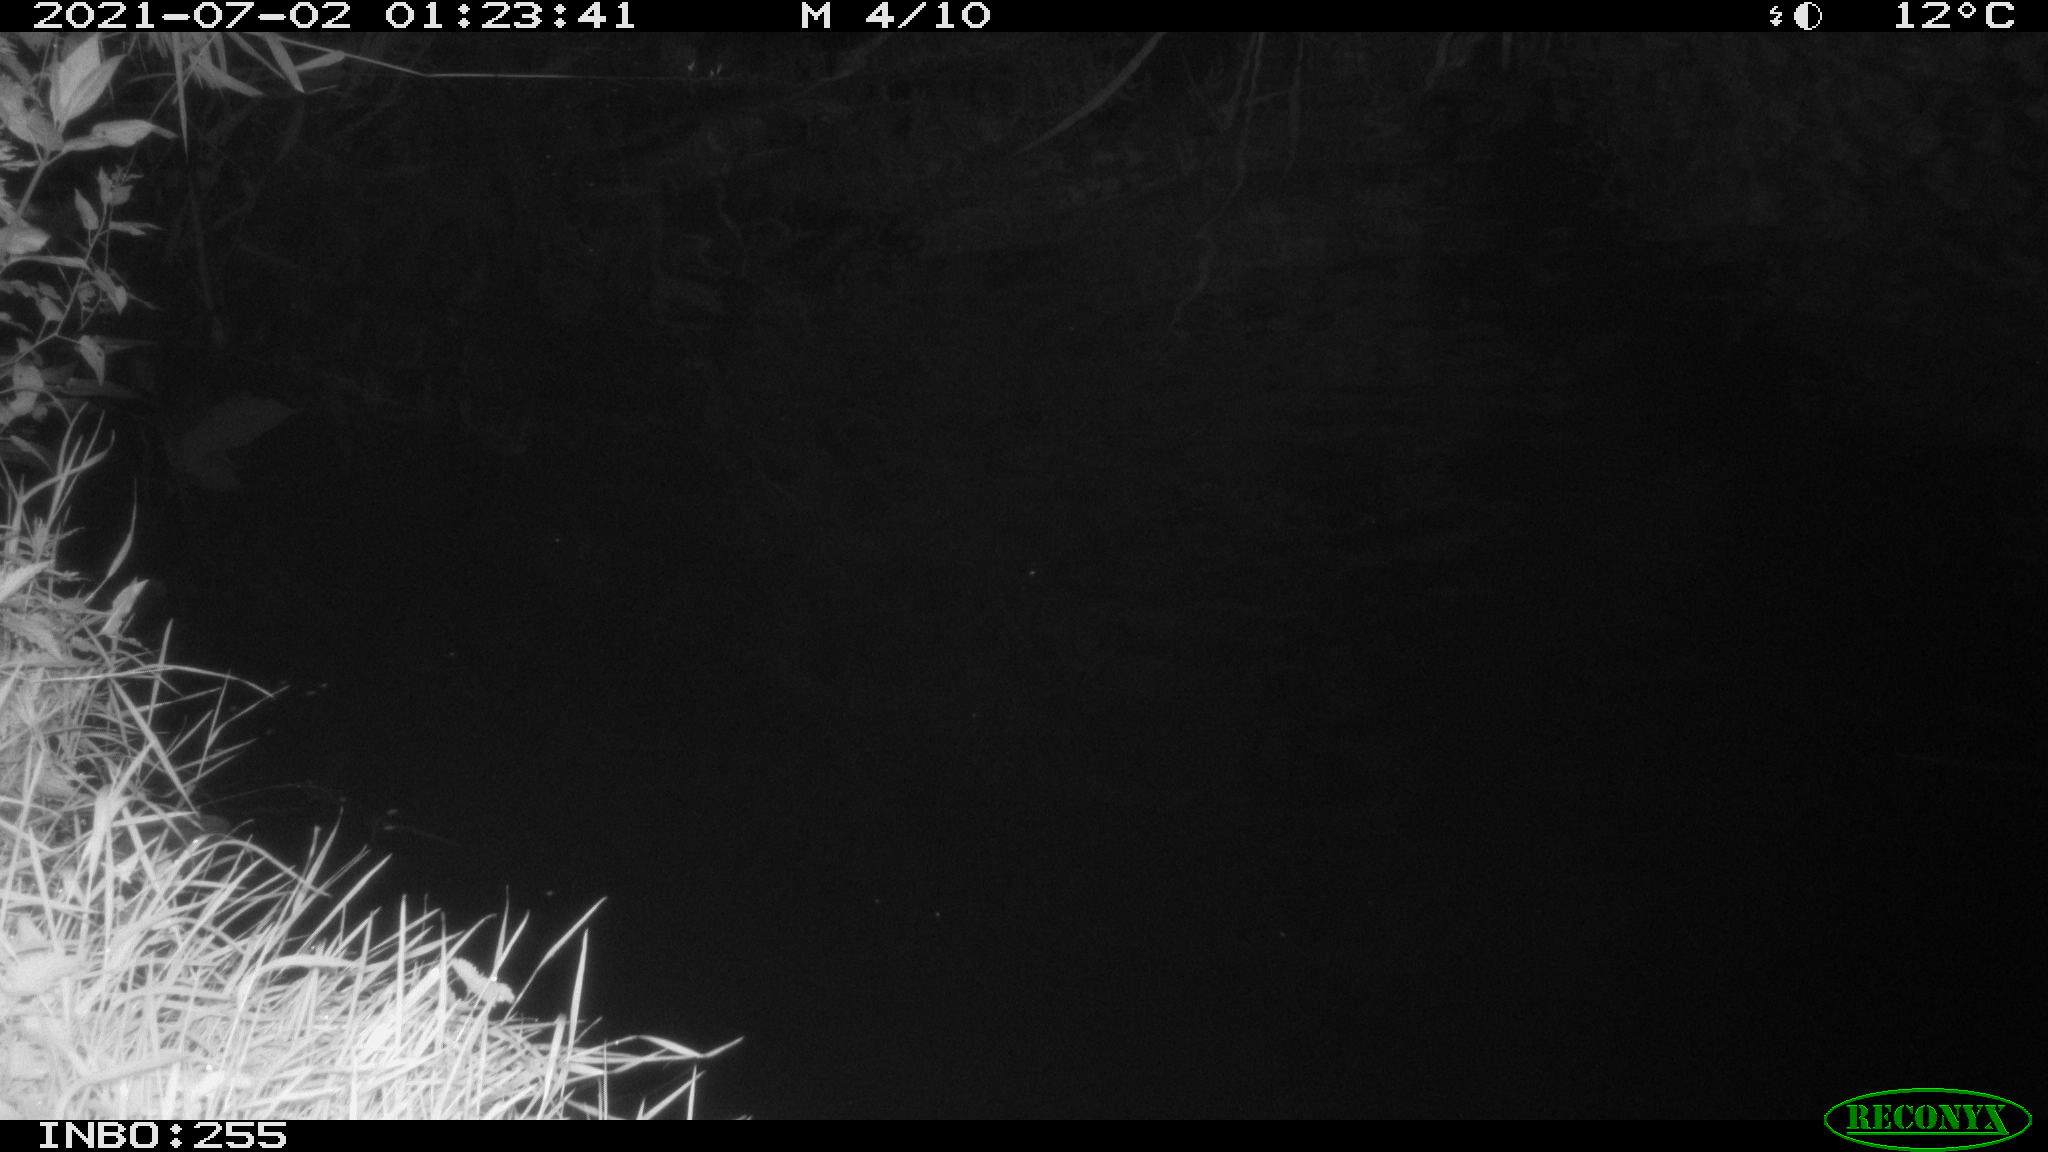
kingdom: Animalia
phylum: Chordata
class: Aves
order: Anseriformes
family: Anatidae
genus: Anas
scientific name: Anas platyrhynchos
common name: Mallard
